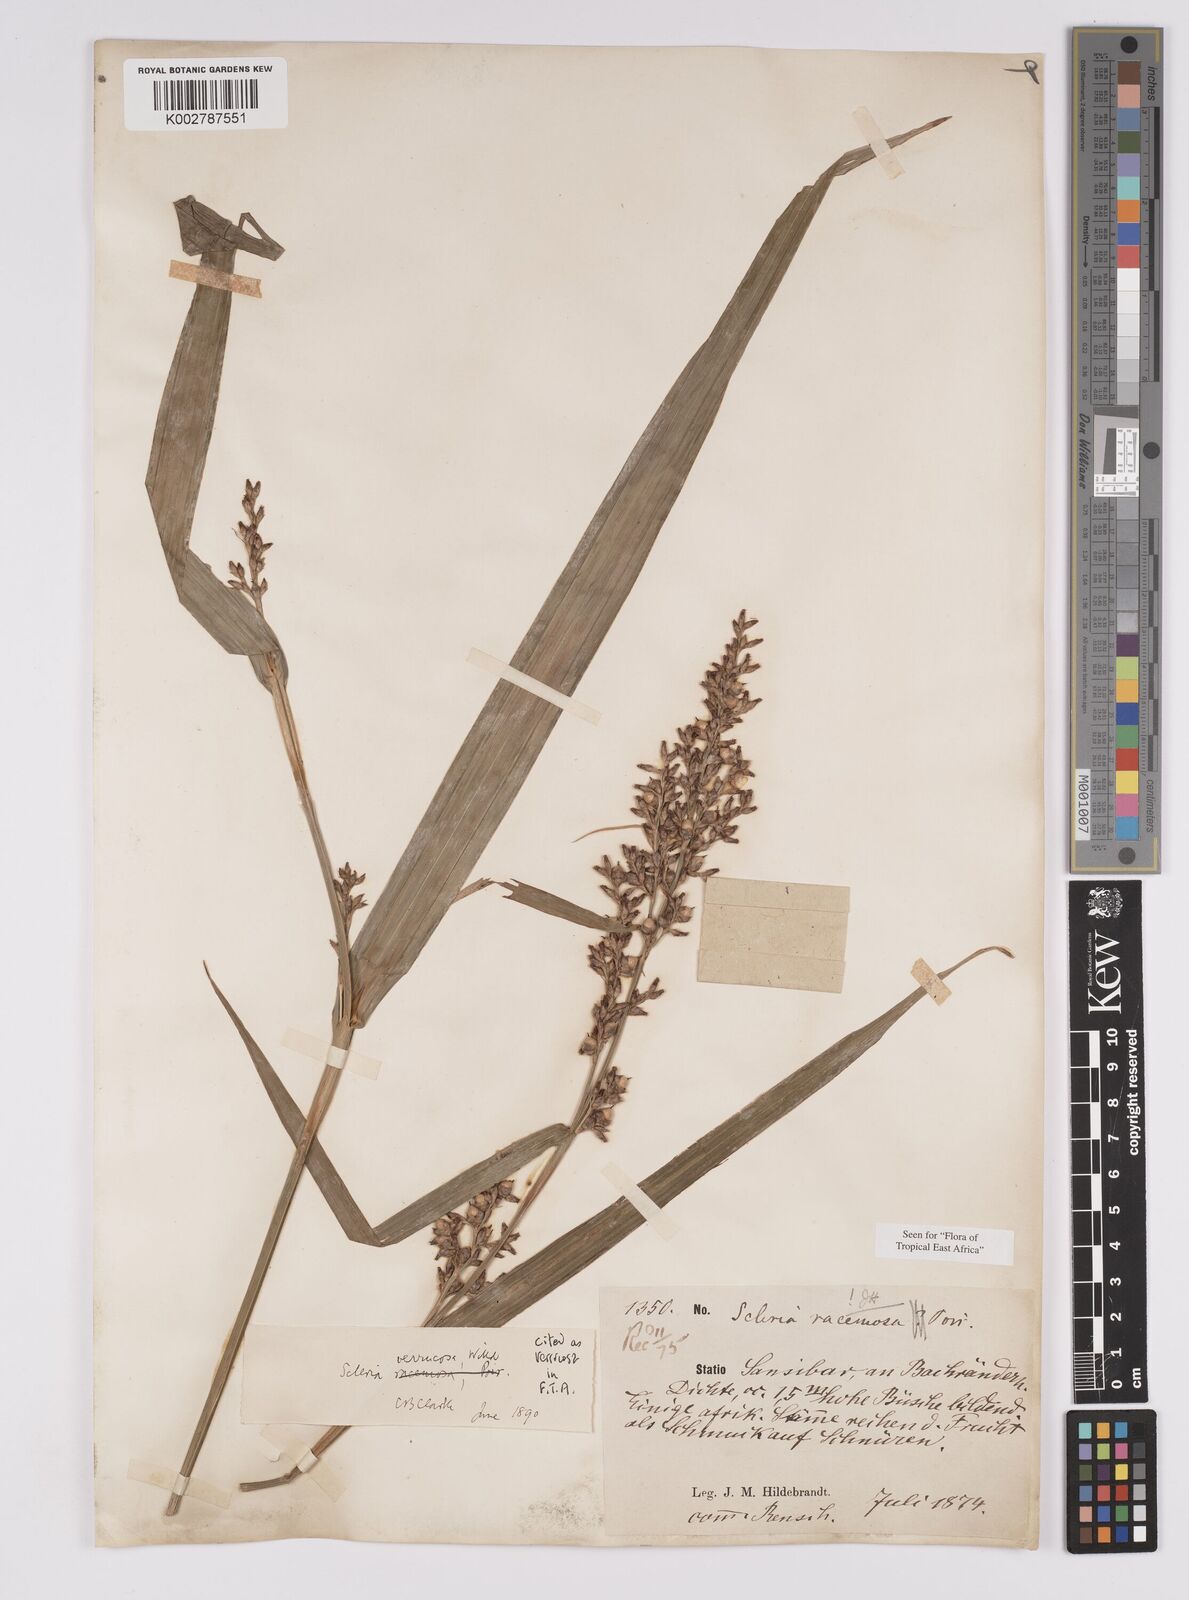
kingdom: Plantae
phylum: Tracheophyta
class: Liliopsida
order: Poales
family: Cyperaceae
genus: Scleria
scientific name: Scleria racemosa
